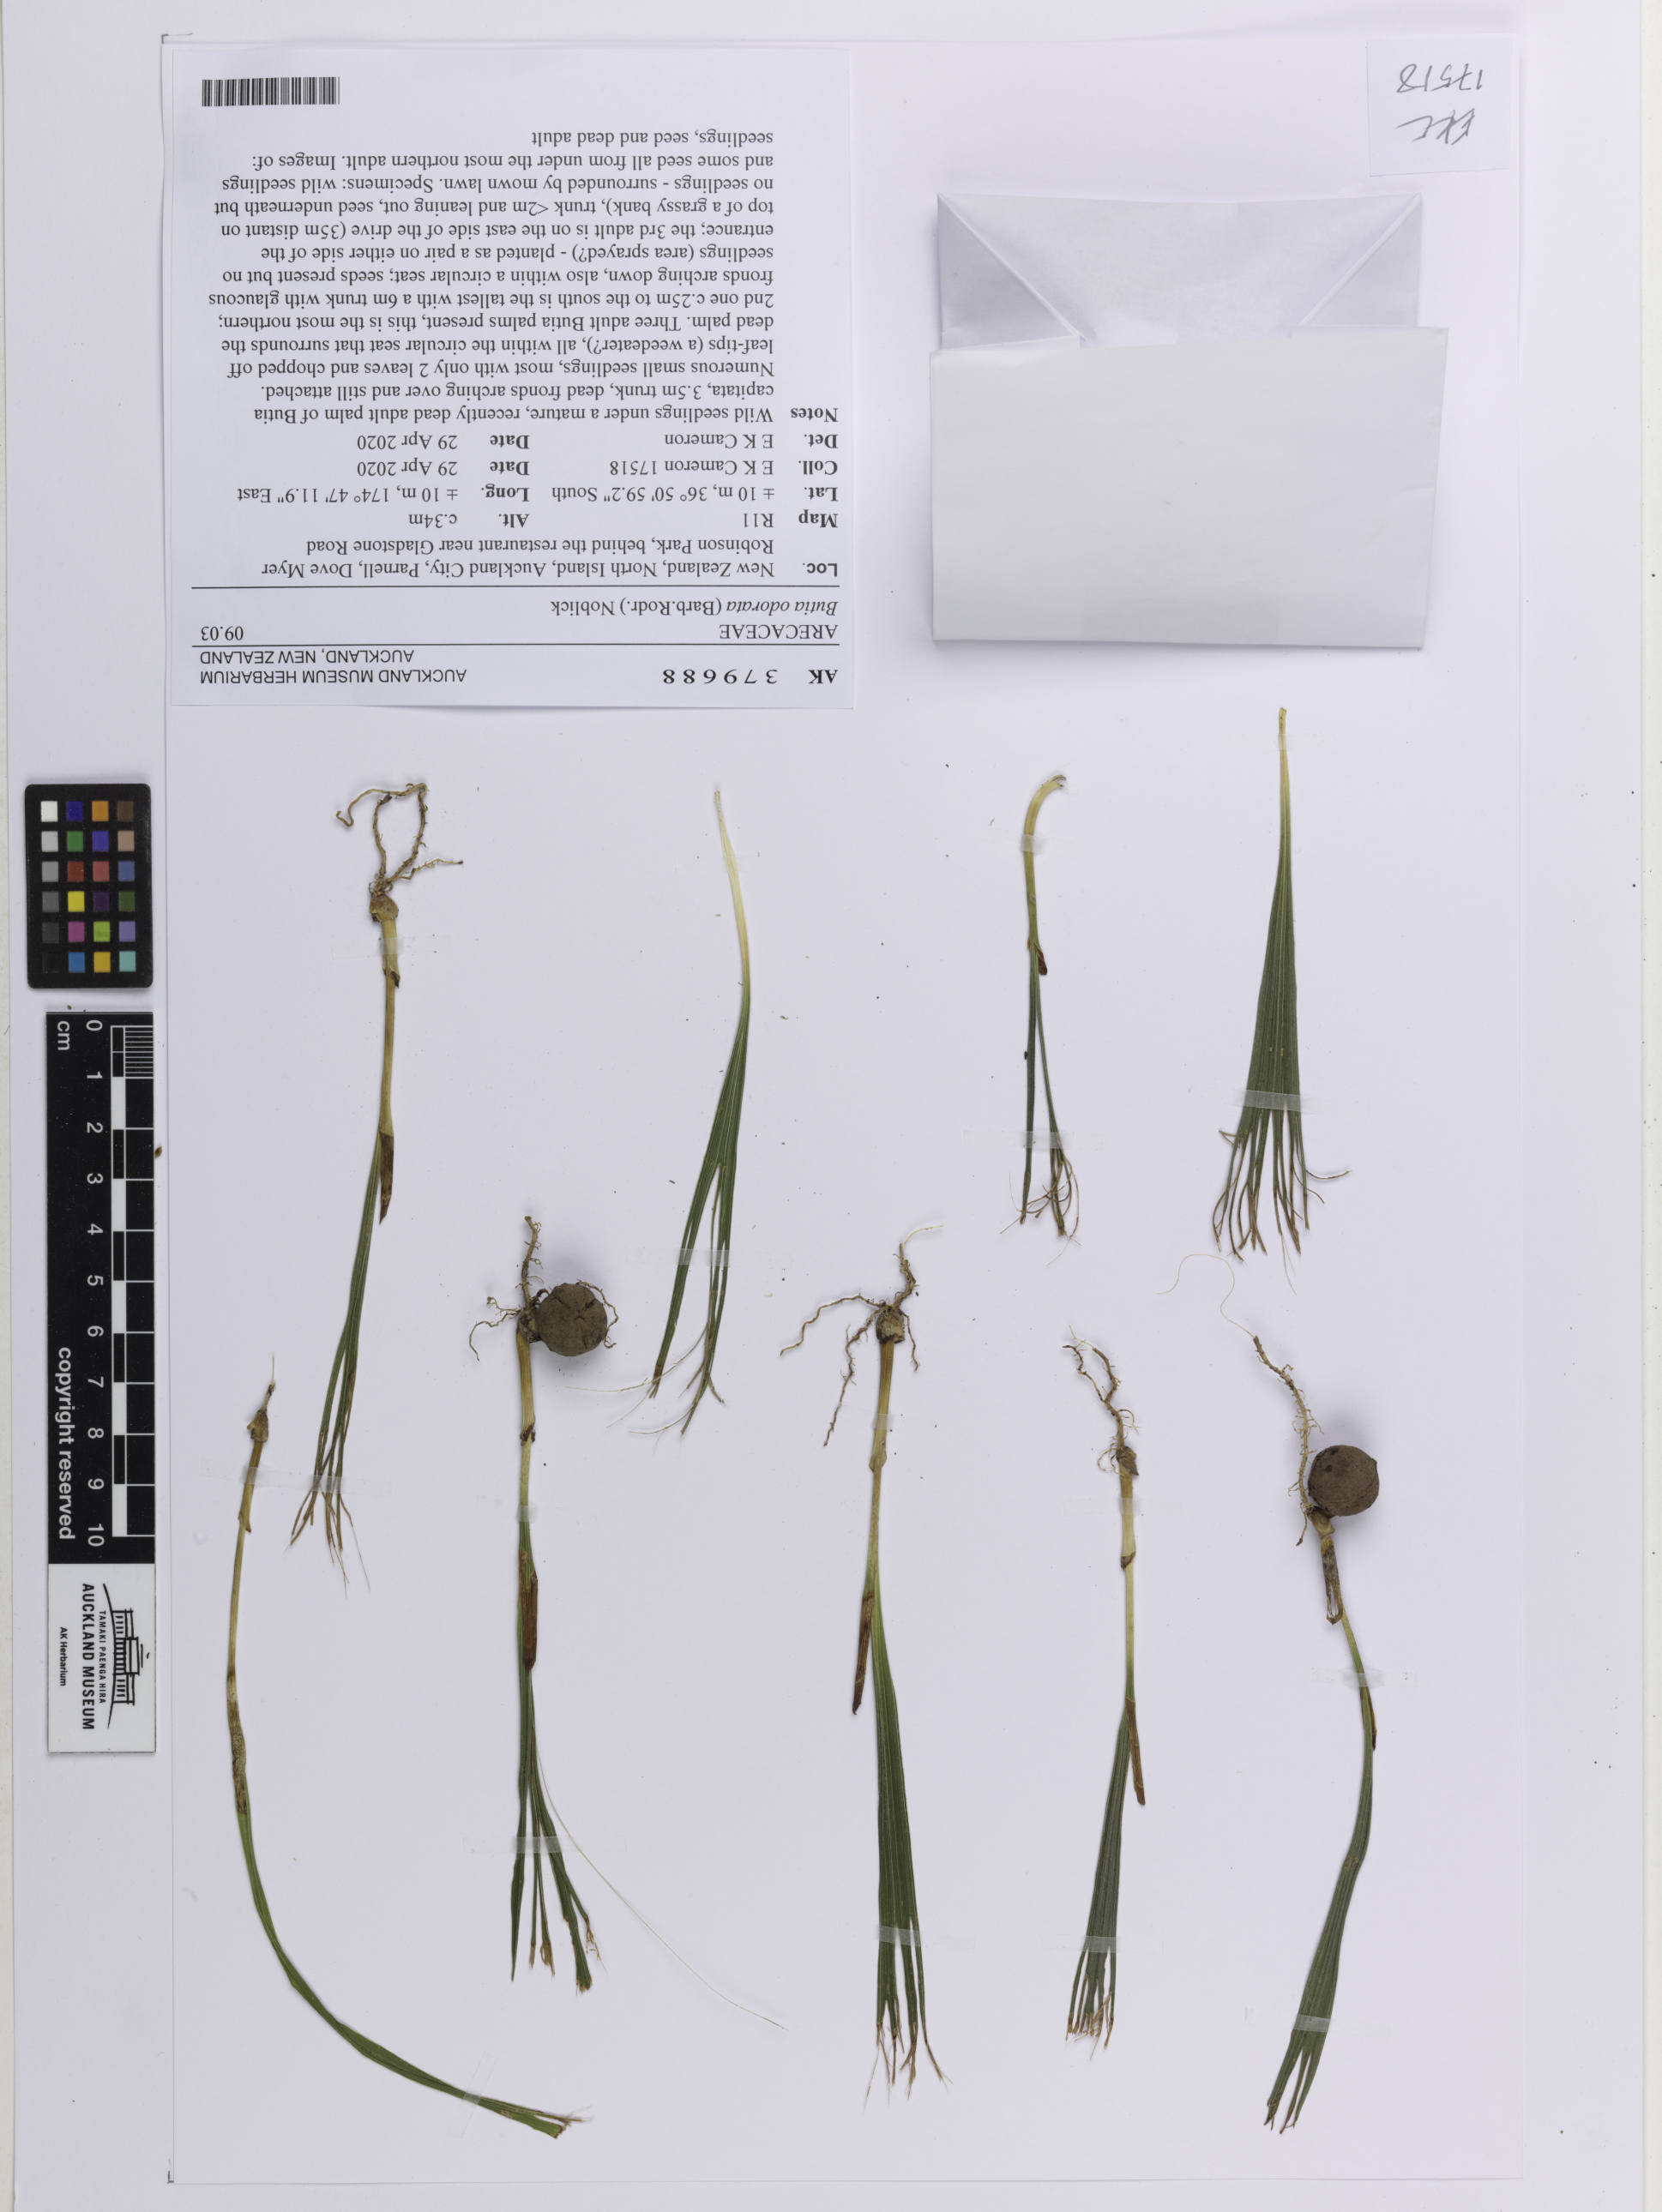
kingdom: Plantae
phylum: Tracheophyta
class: Liliopsida
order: Arecales
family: Arecaceae
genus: Butia
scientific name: Butia odorata
